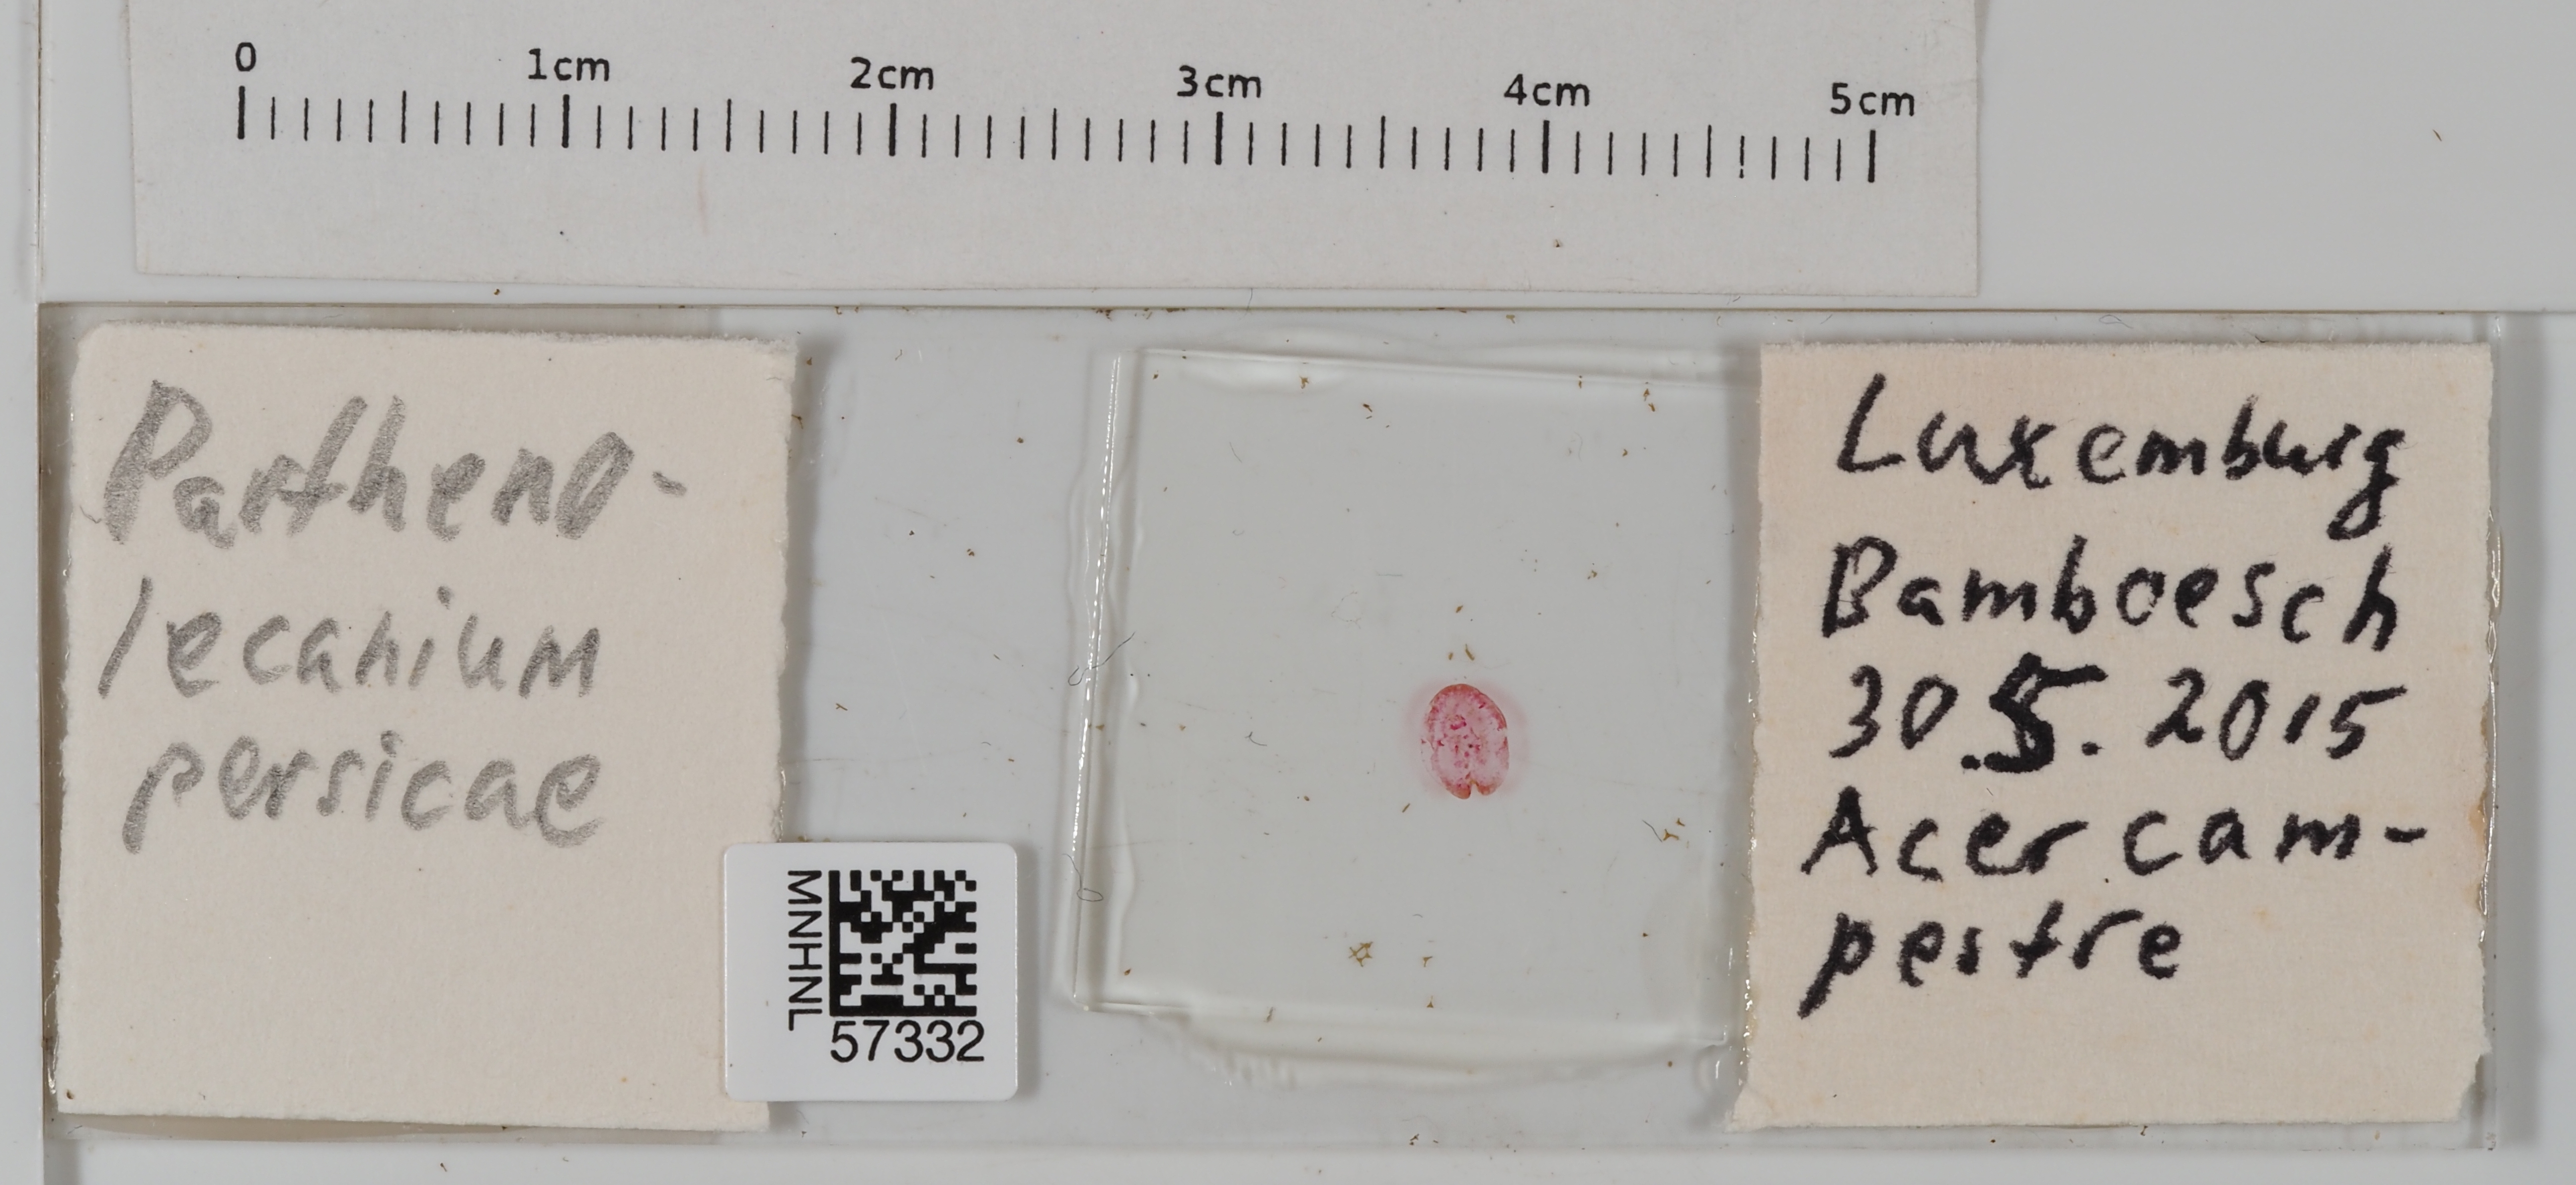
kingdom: Animalia
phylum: Arthropoda
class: Insecta
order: Hemiptera
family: Coccidae
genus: Parthenolecanium
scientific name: Parthenolecanium persicae
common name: Peach scale
